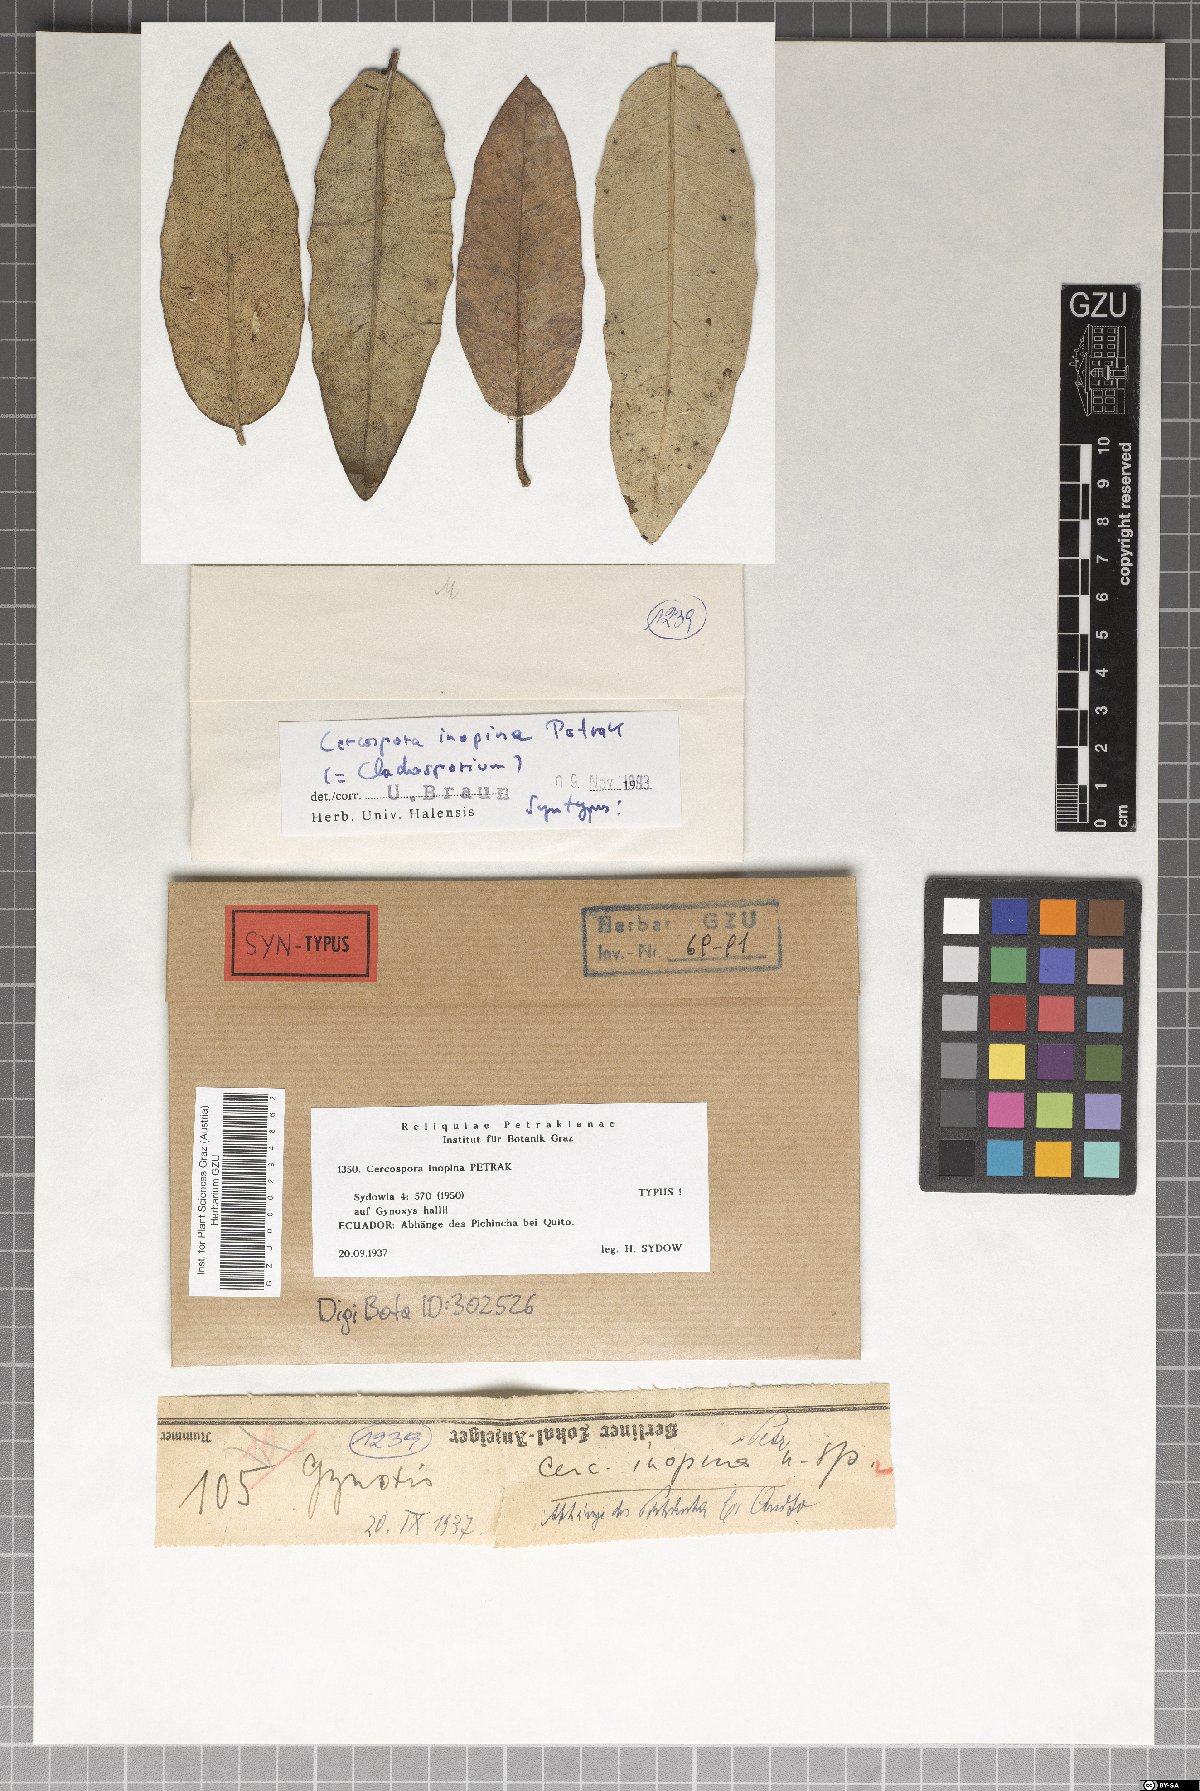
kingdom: Fungi
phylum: Ascomycota
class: Dothideomycetes
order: Capnodiales
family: Cladosporiaceae
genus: Cladosporium
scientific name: Cladosporium inopinum
